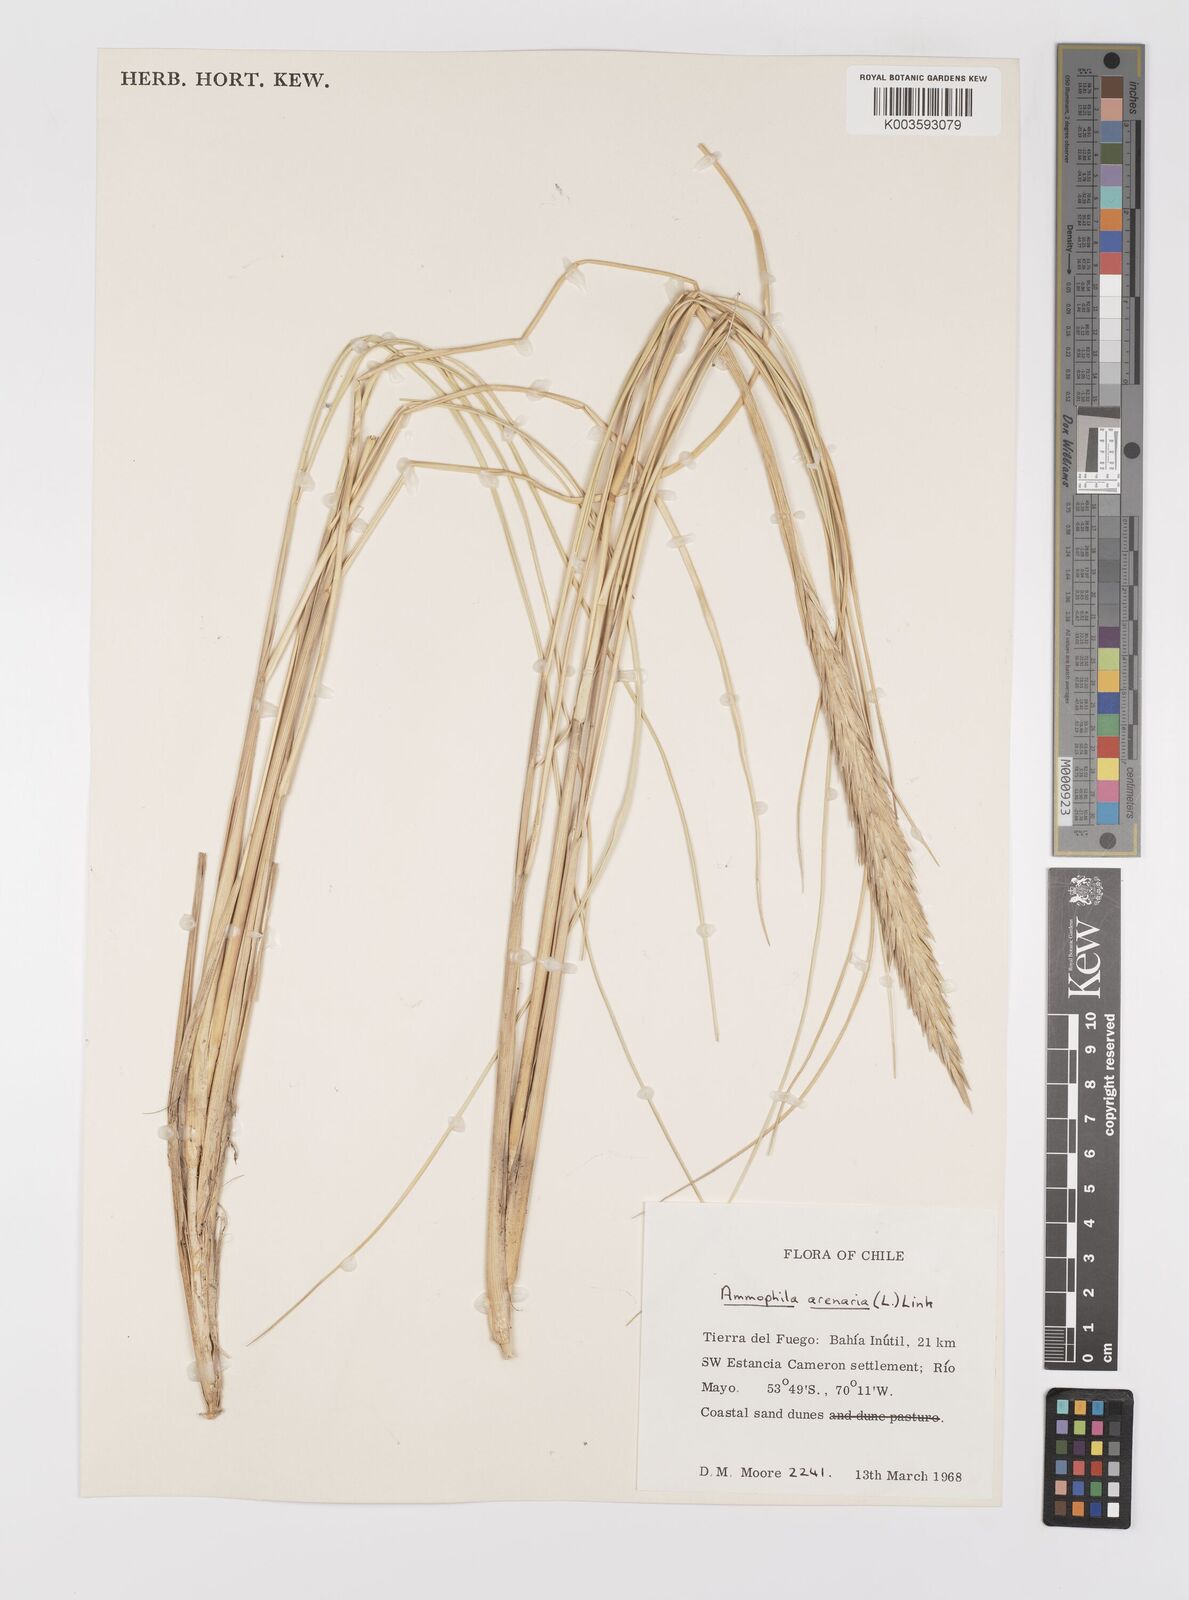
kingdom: Animalia
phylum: Arthropoda
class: Insecta
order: Hymenoptera
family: Sphecidae
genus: Ammophila
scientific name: Ammophila
